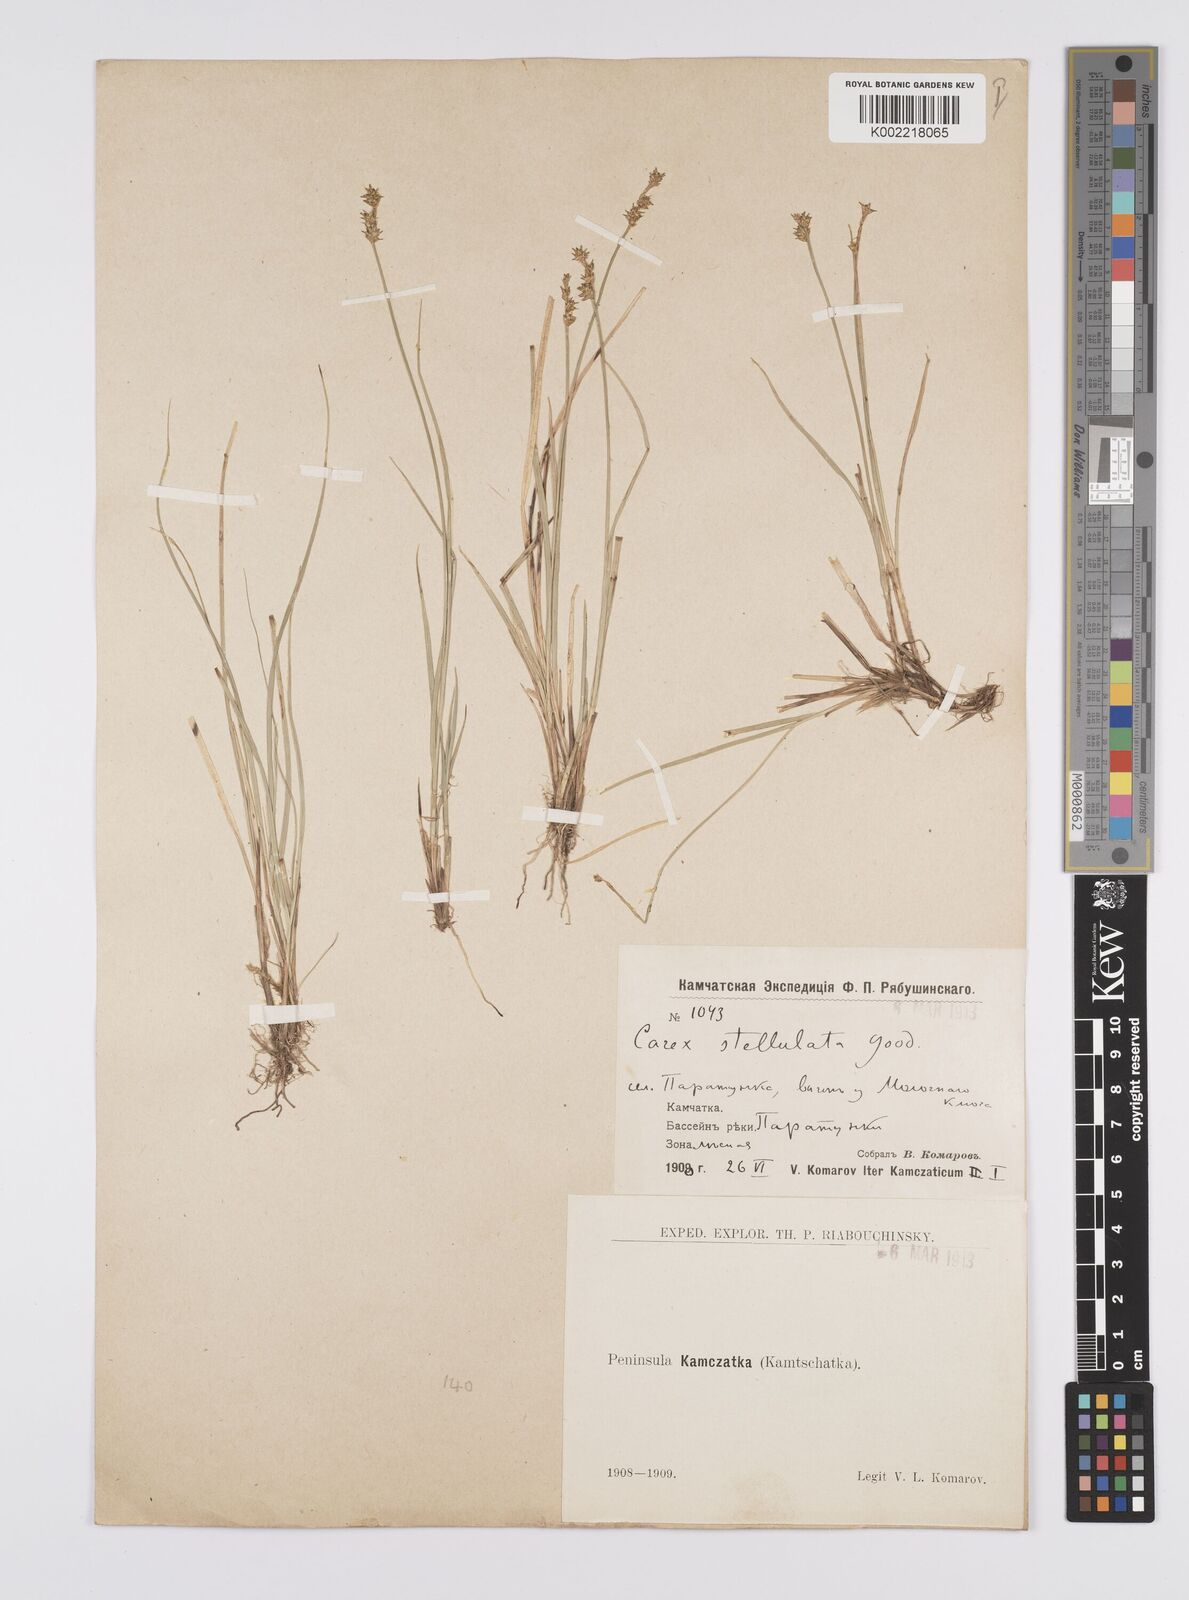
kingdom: Plantae
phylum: Tracheophyta
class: Liliopsida
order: Poales
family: Cyperaceae
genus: Carex
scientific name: Carex echinata
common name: Star sedge
